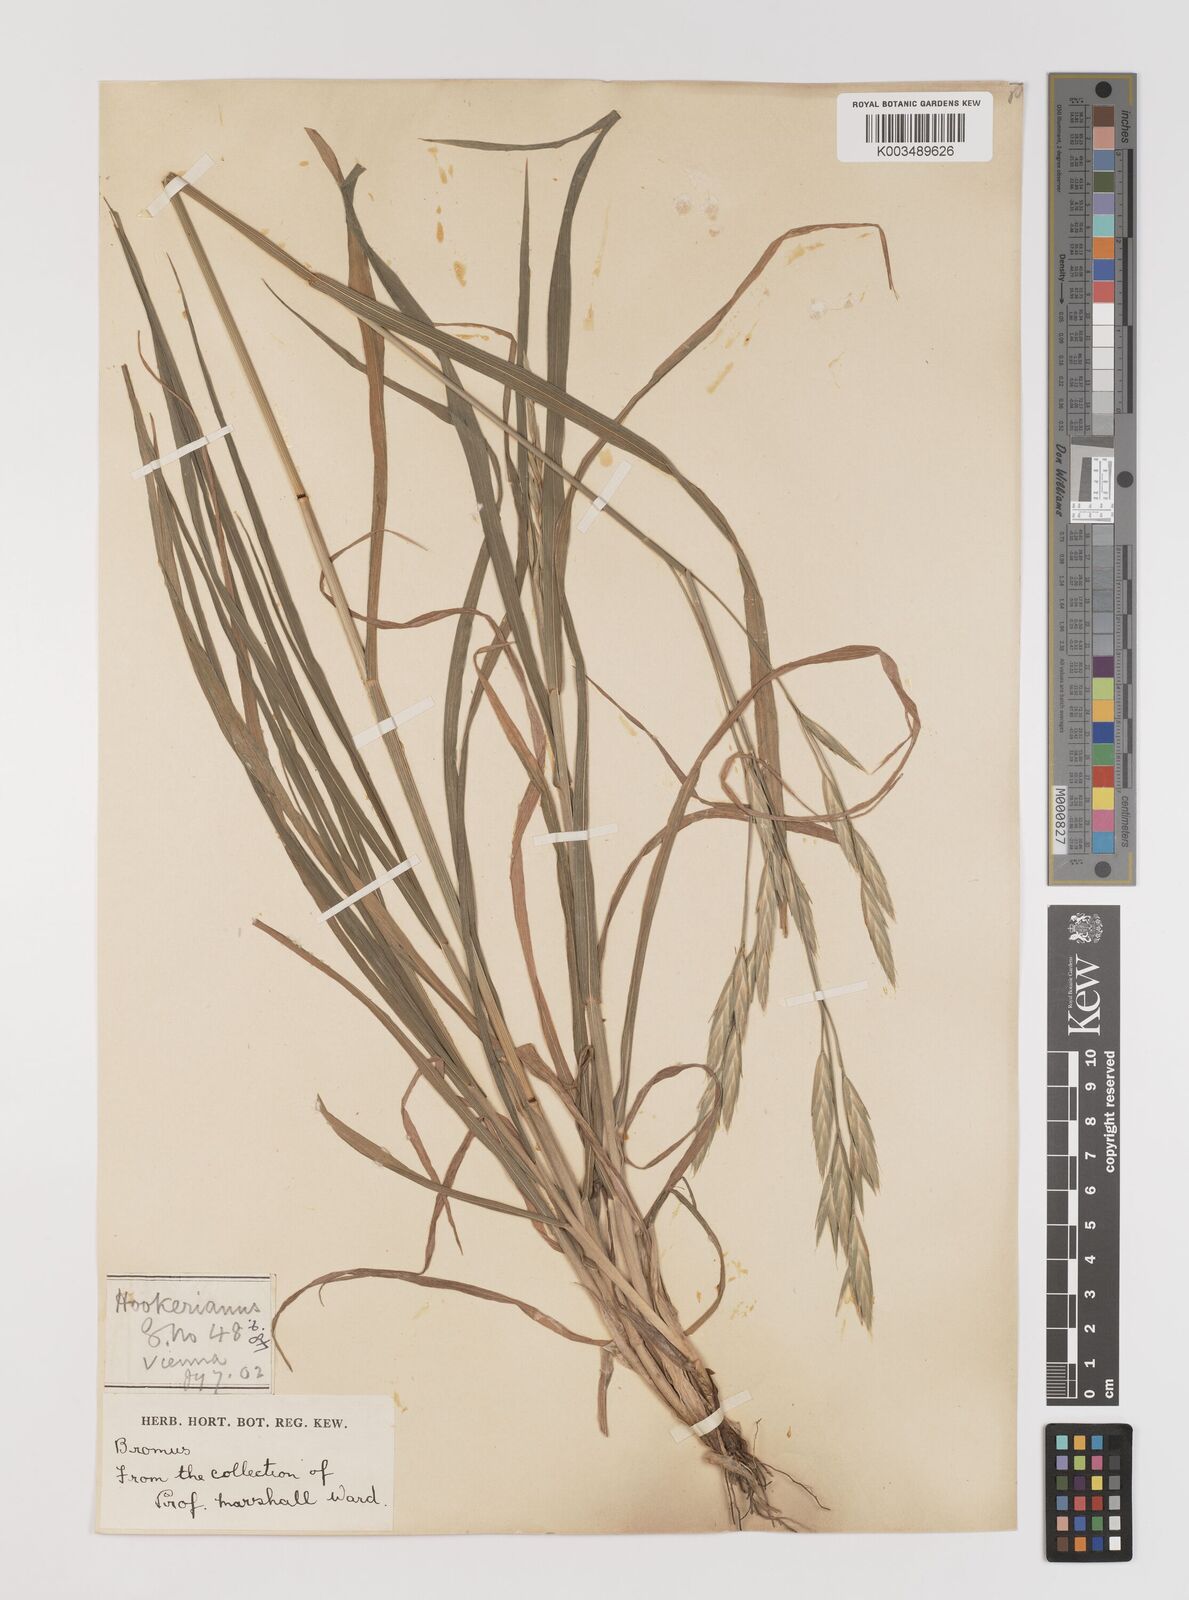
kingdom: Plantae
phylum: Tracheophyta
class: Liliopsida
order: Poales
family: Poaceae
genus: Bromus
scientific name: Bromus catharticus
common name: Rescuegrass
